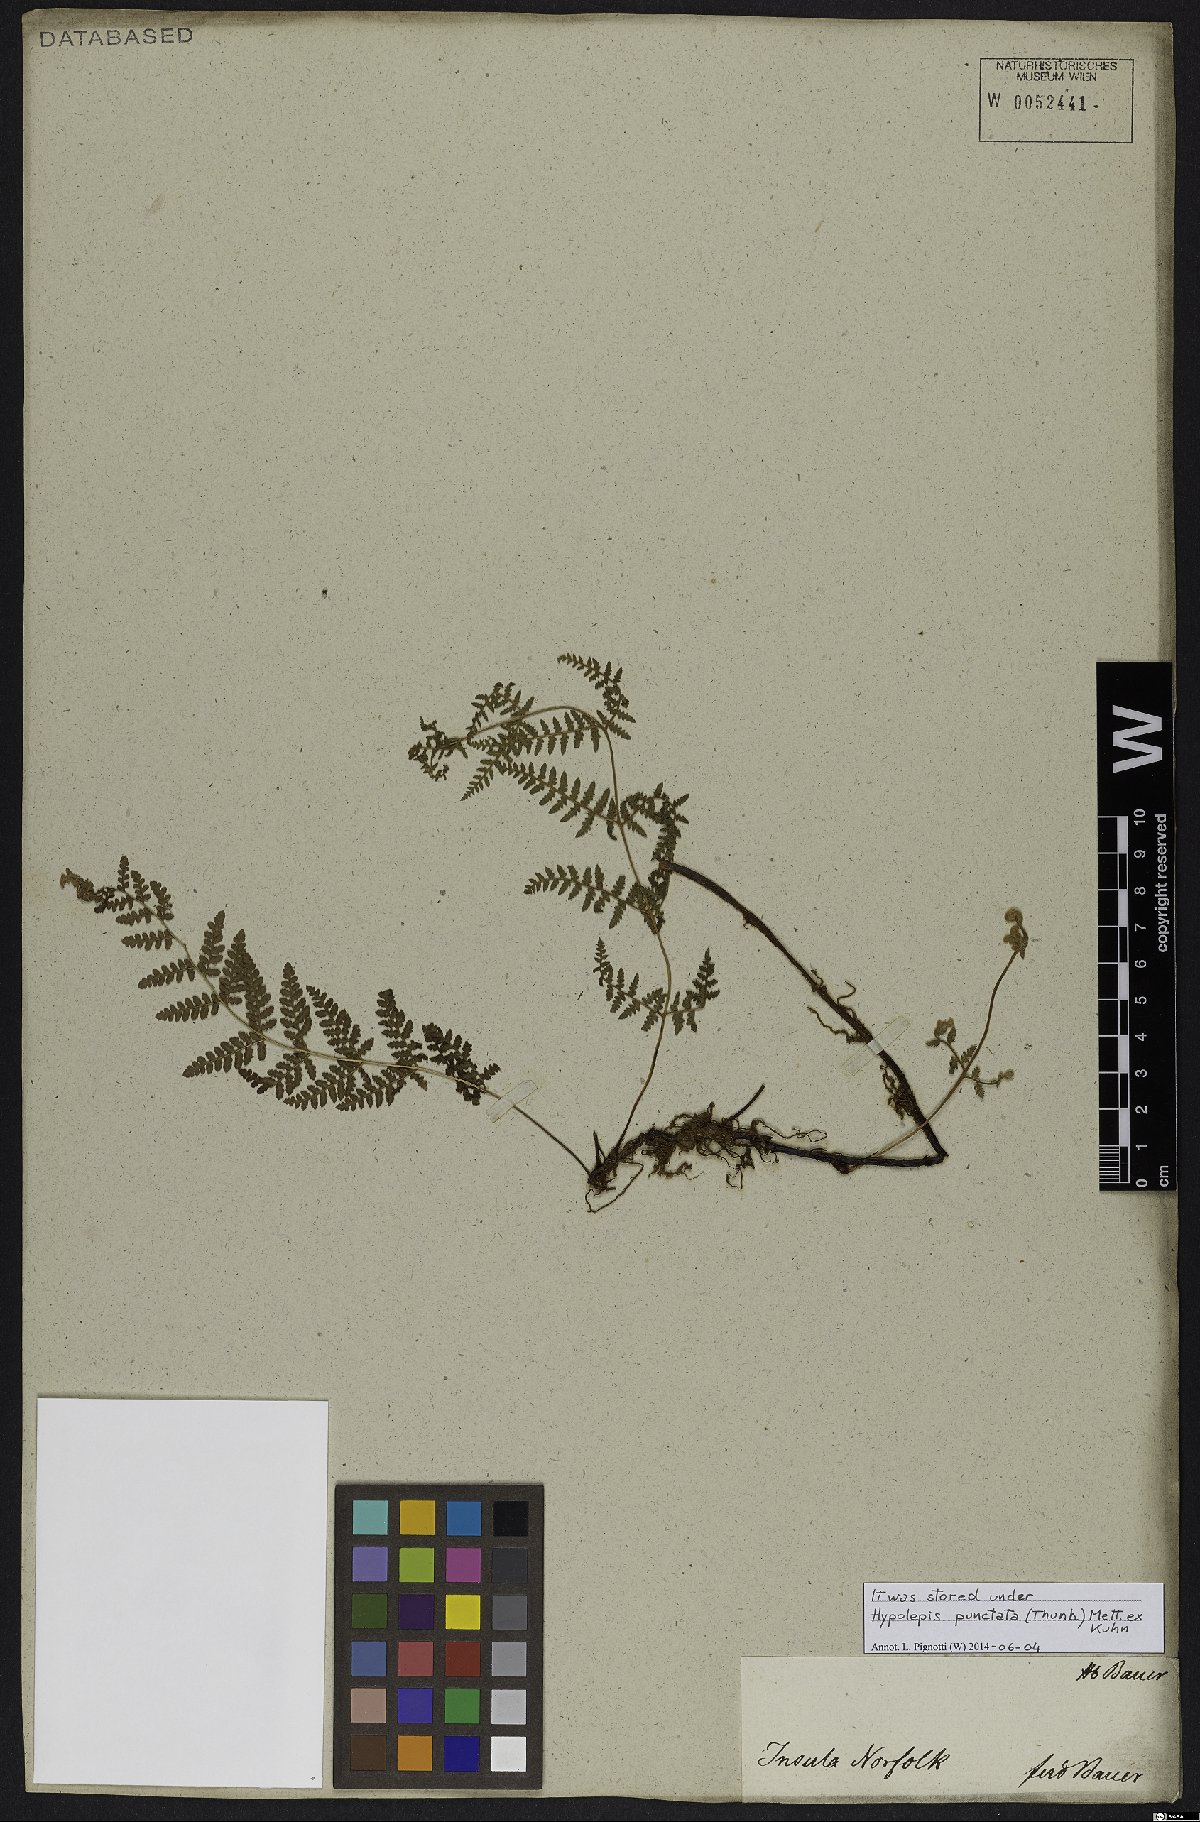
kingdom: Plantae
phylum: Tracheophyta
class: Polypodiopsida
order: Polypodiales
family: Dennstaedtiaceae
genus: Hypolepis
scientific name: Hypolepis punctata
